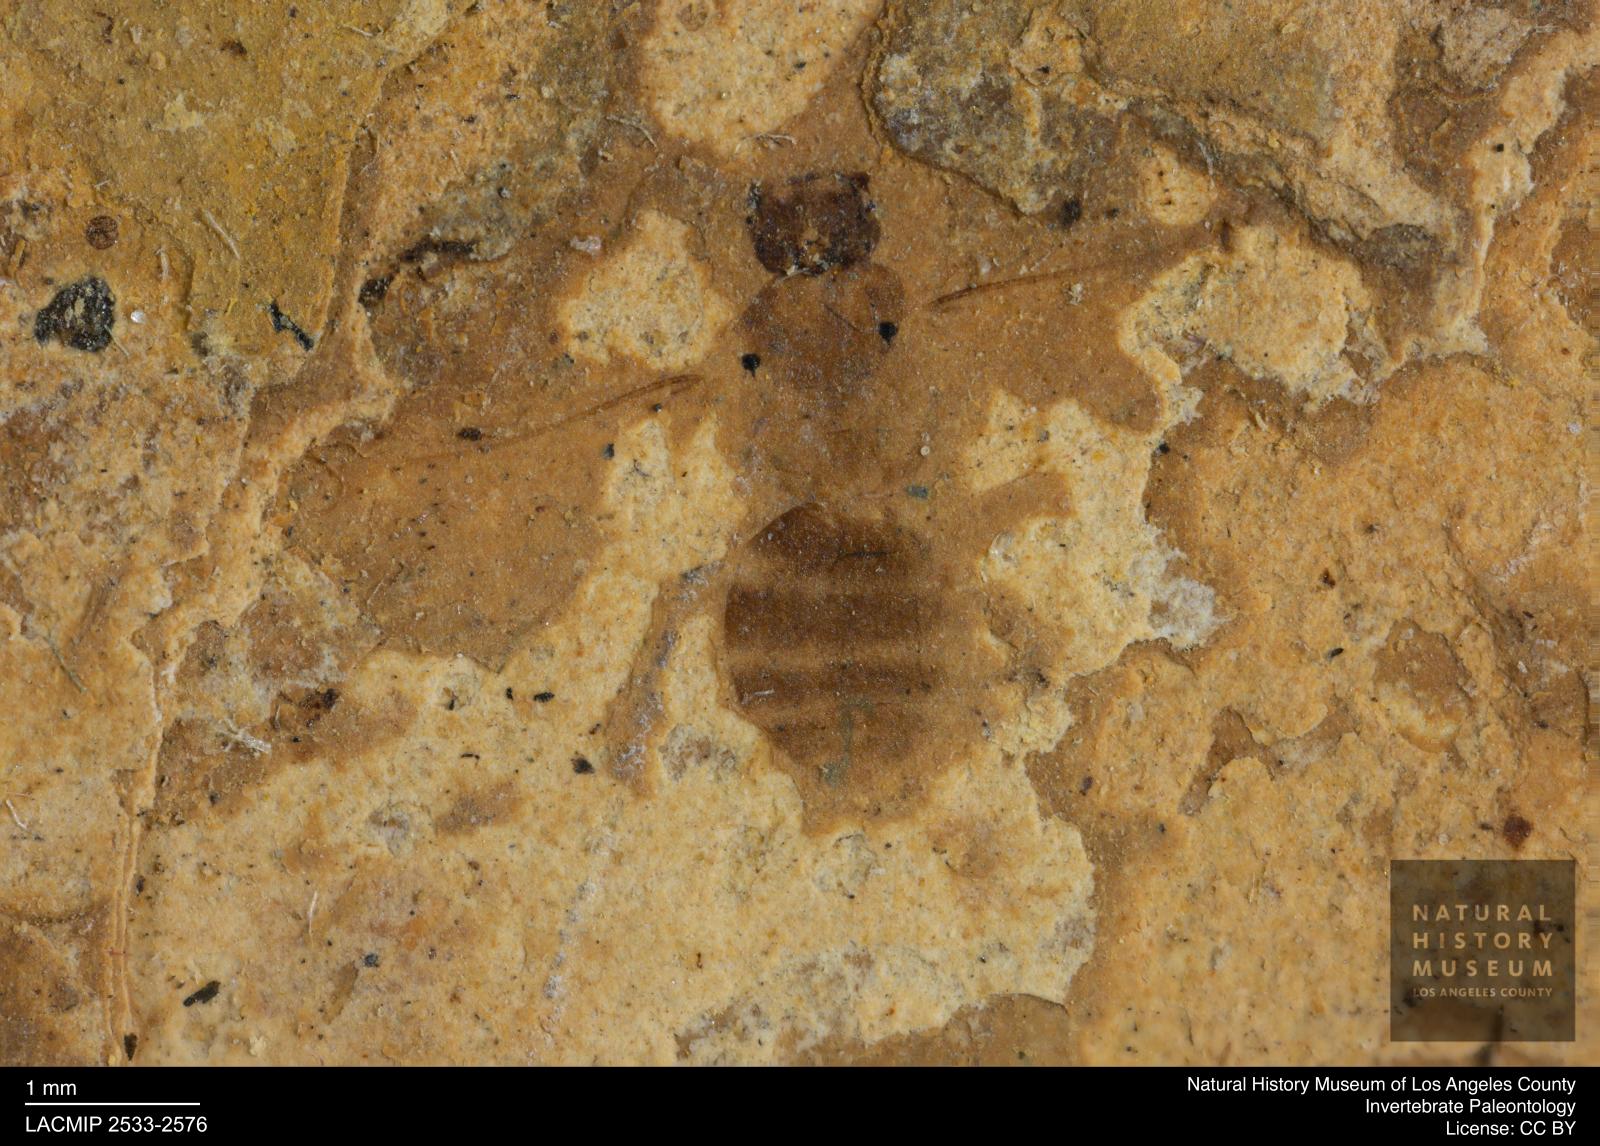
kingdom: Animalia
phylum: Arthropoda
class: Insecta
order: Hymenoptera
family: Formicidae
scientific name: Formicidae
